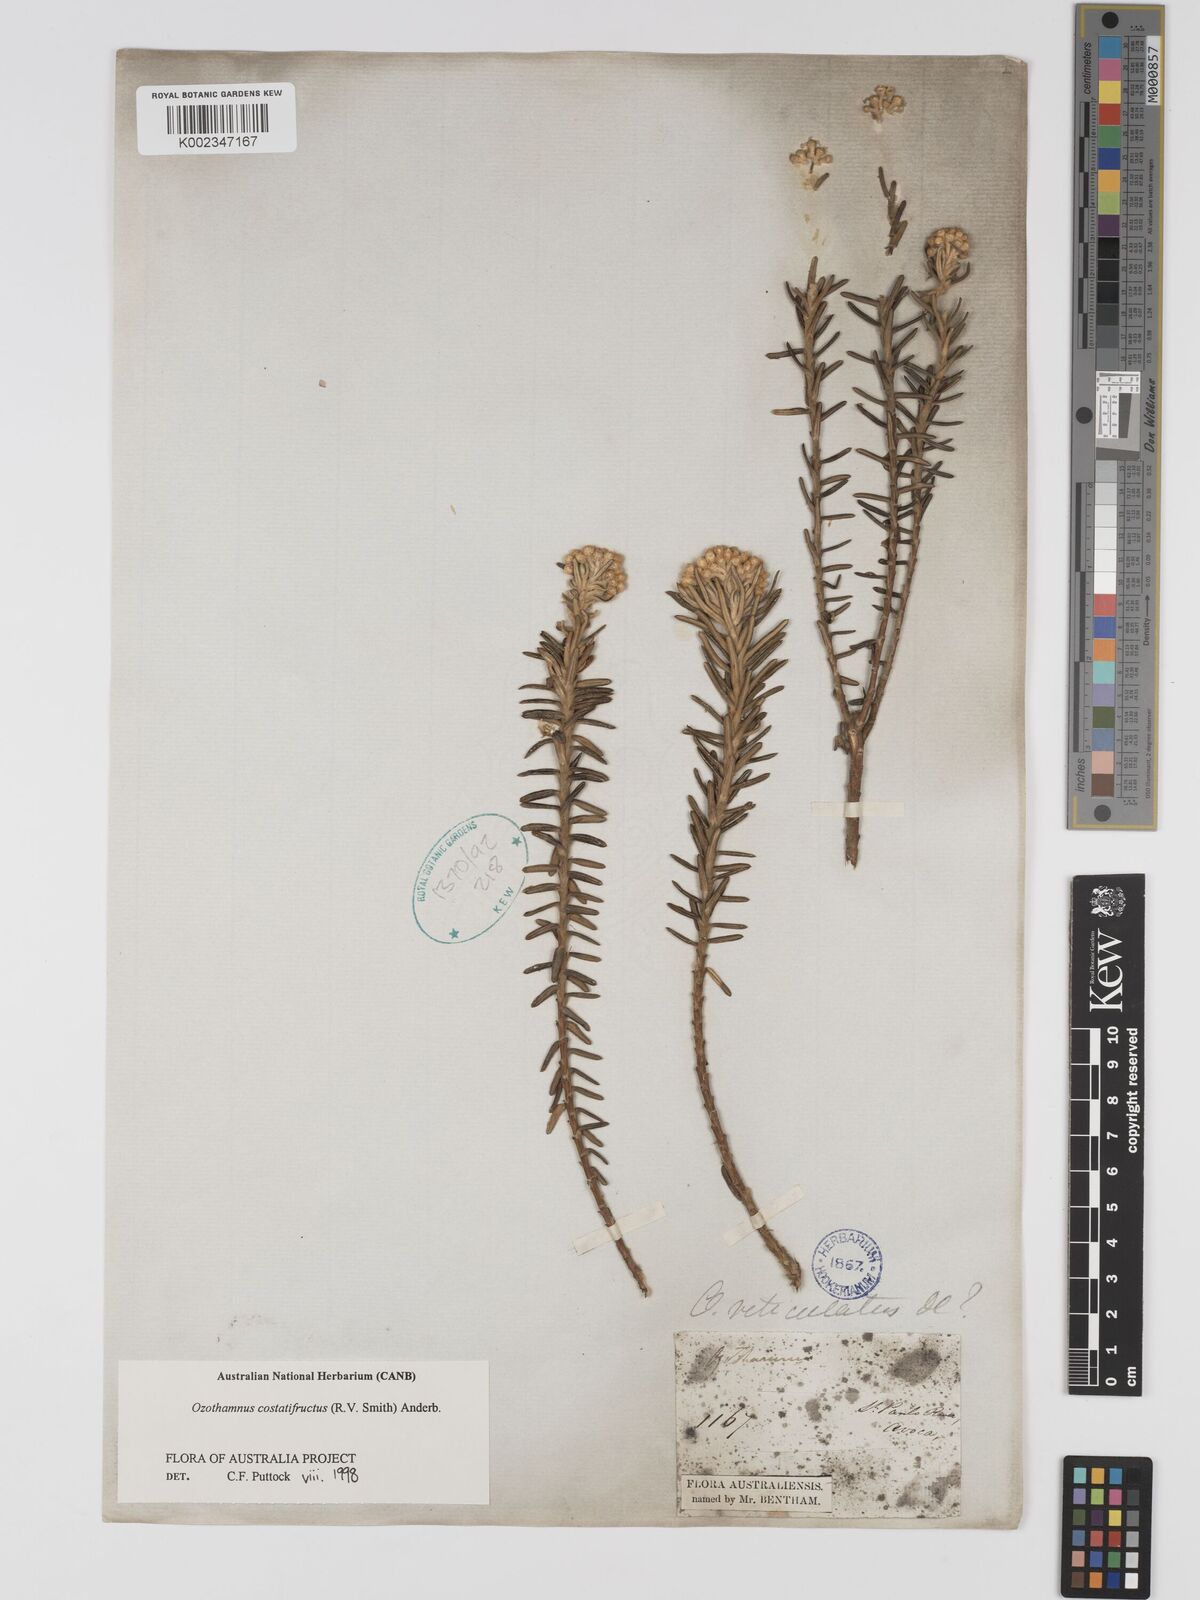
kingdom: Plantae
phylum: Tracheophyta
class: Magnoliopsida
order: Asterales
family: Asteraceae
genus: Ozothamnus
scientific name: Ozothamnus costatifructus
